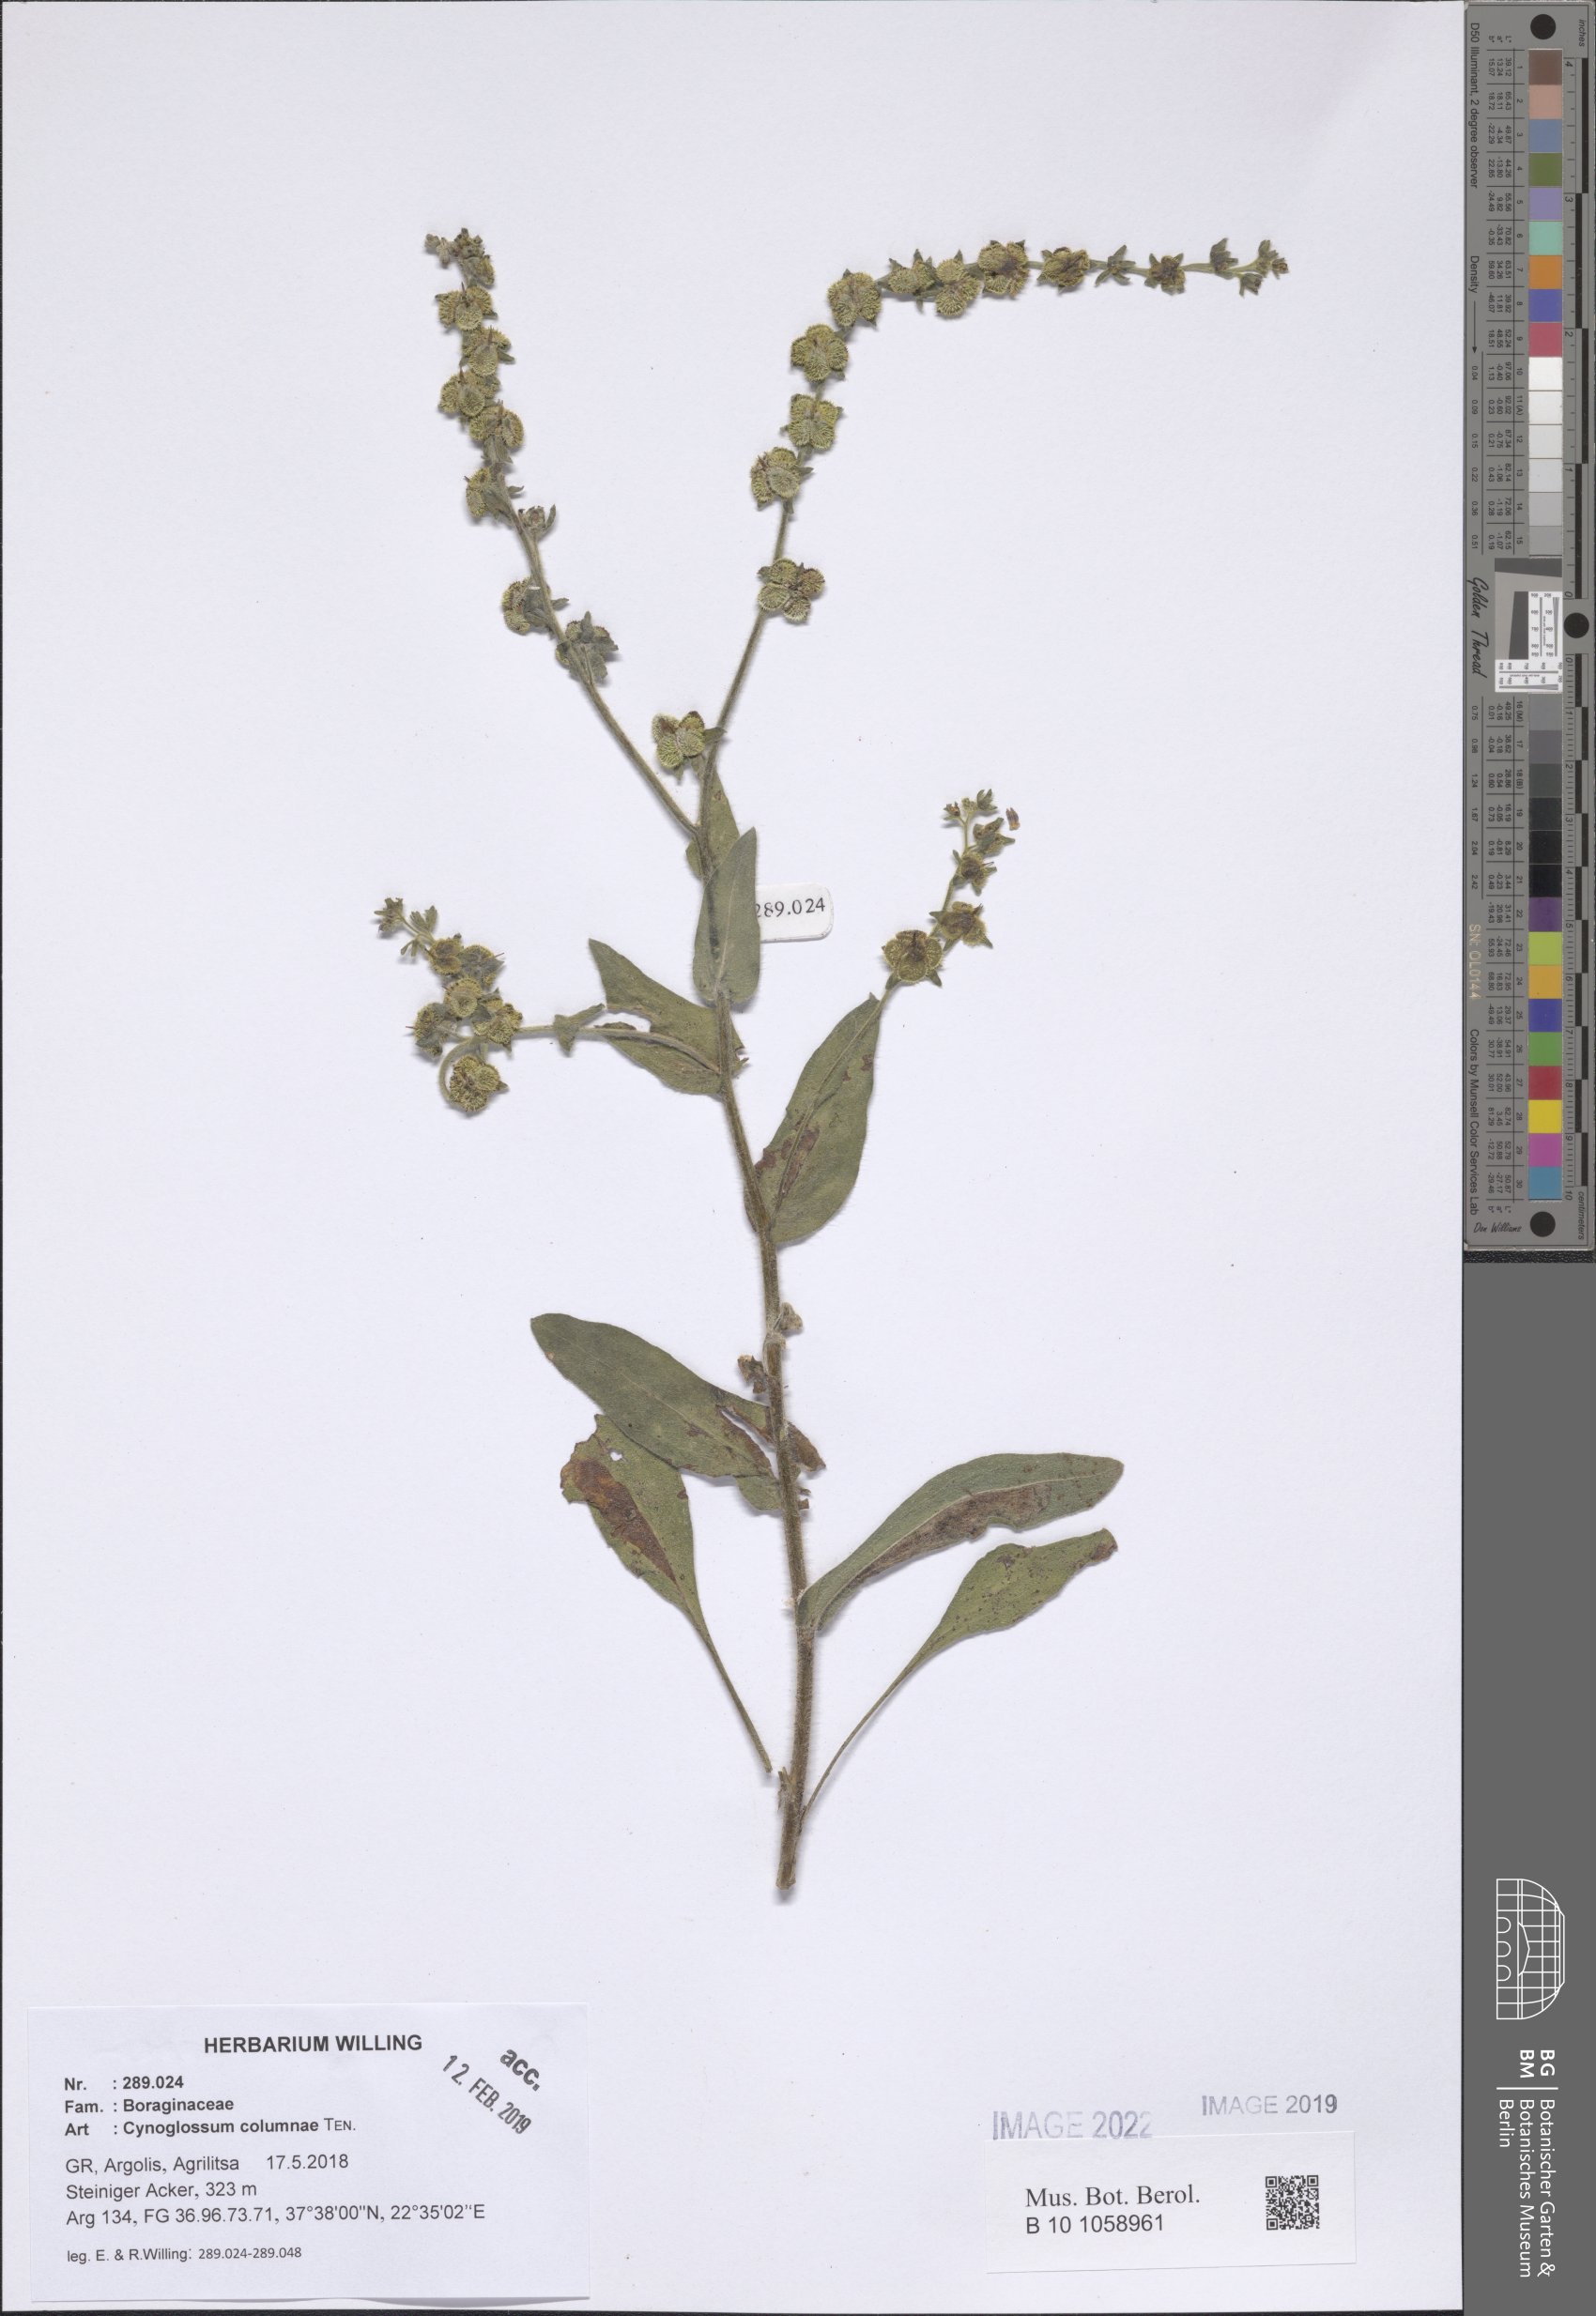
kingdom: Plantae
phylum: Tracheophyta
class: Magnoliopsida
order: Boraginales
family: Boraginaceae
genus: Rindera
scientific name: Rindera columnae
